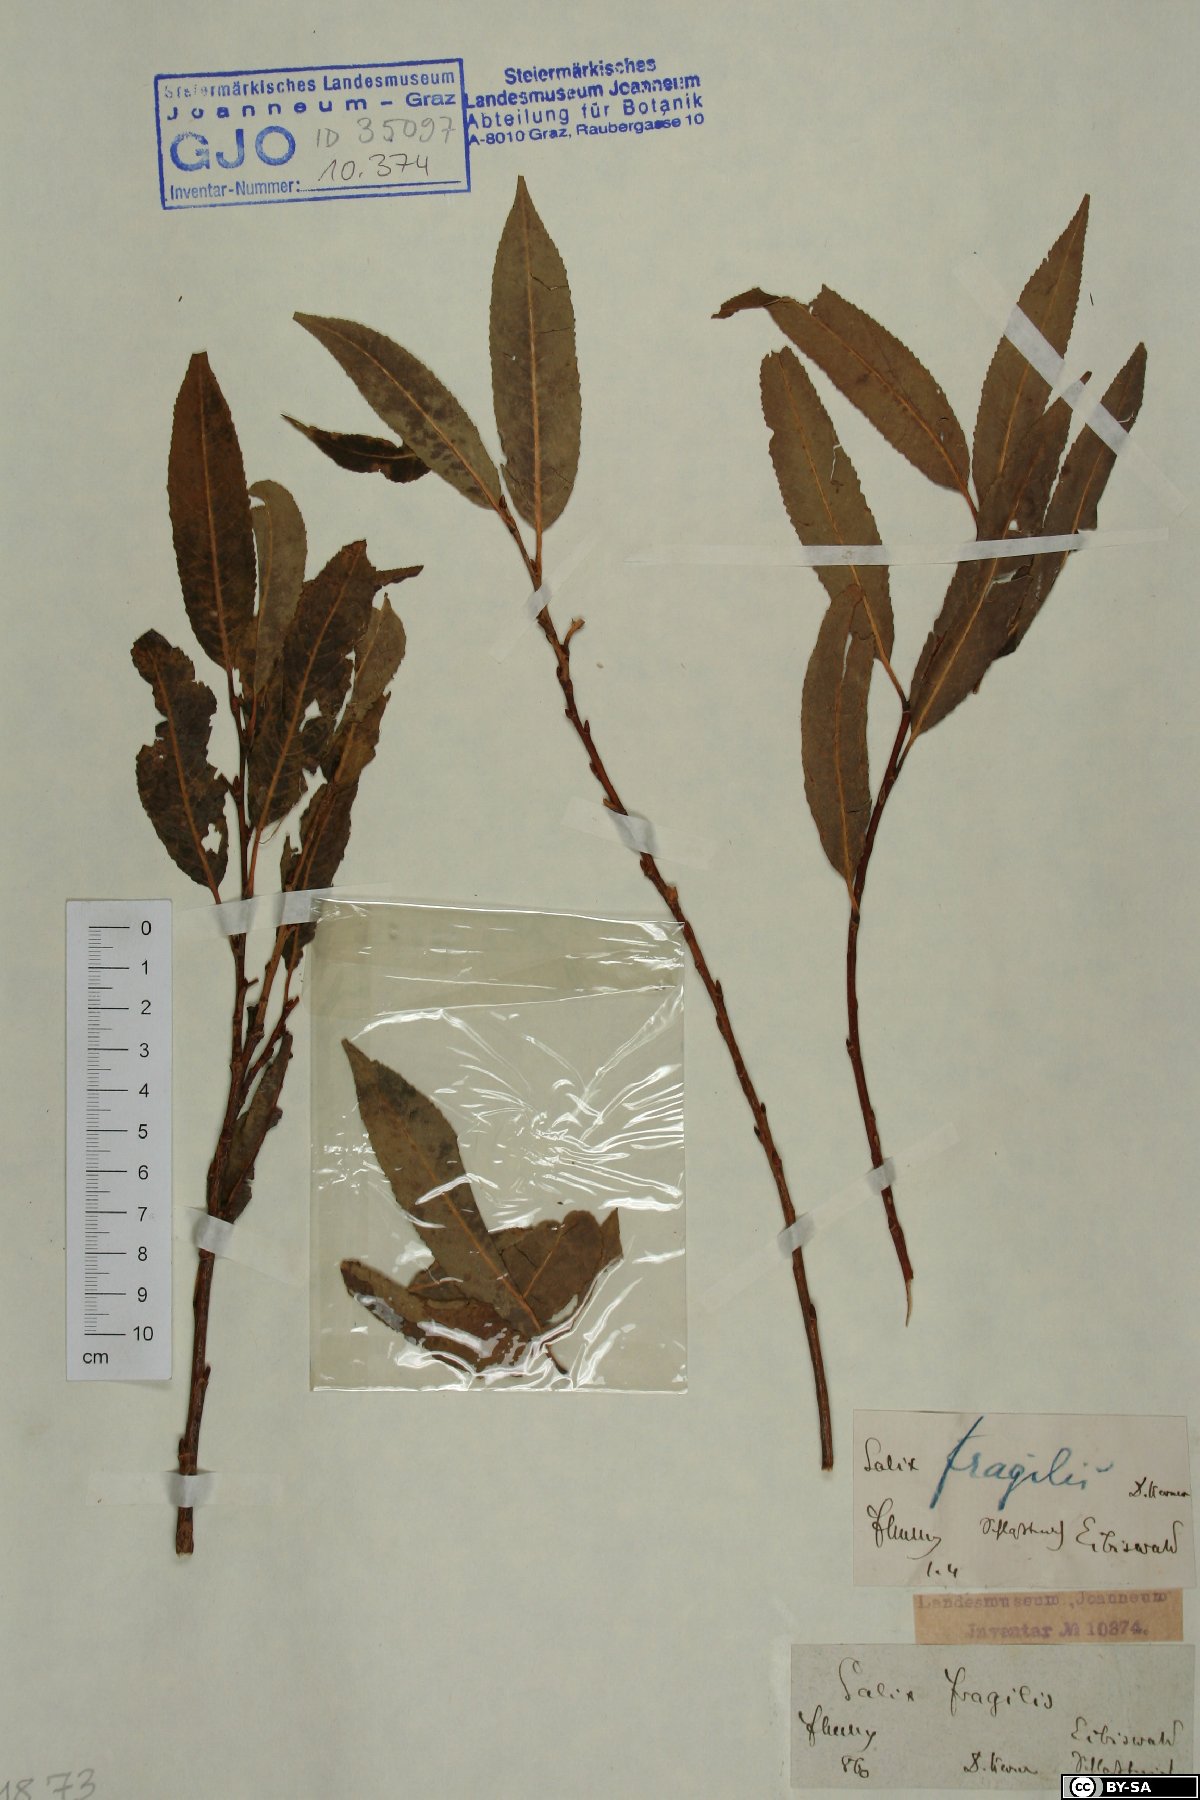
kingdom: Plantae
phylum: Tracheophyta
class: Magnoliopsida
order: Malpighiales
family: Salicaceae
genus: Salix
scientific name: Salix fragilis
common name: Crack willow
